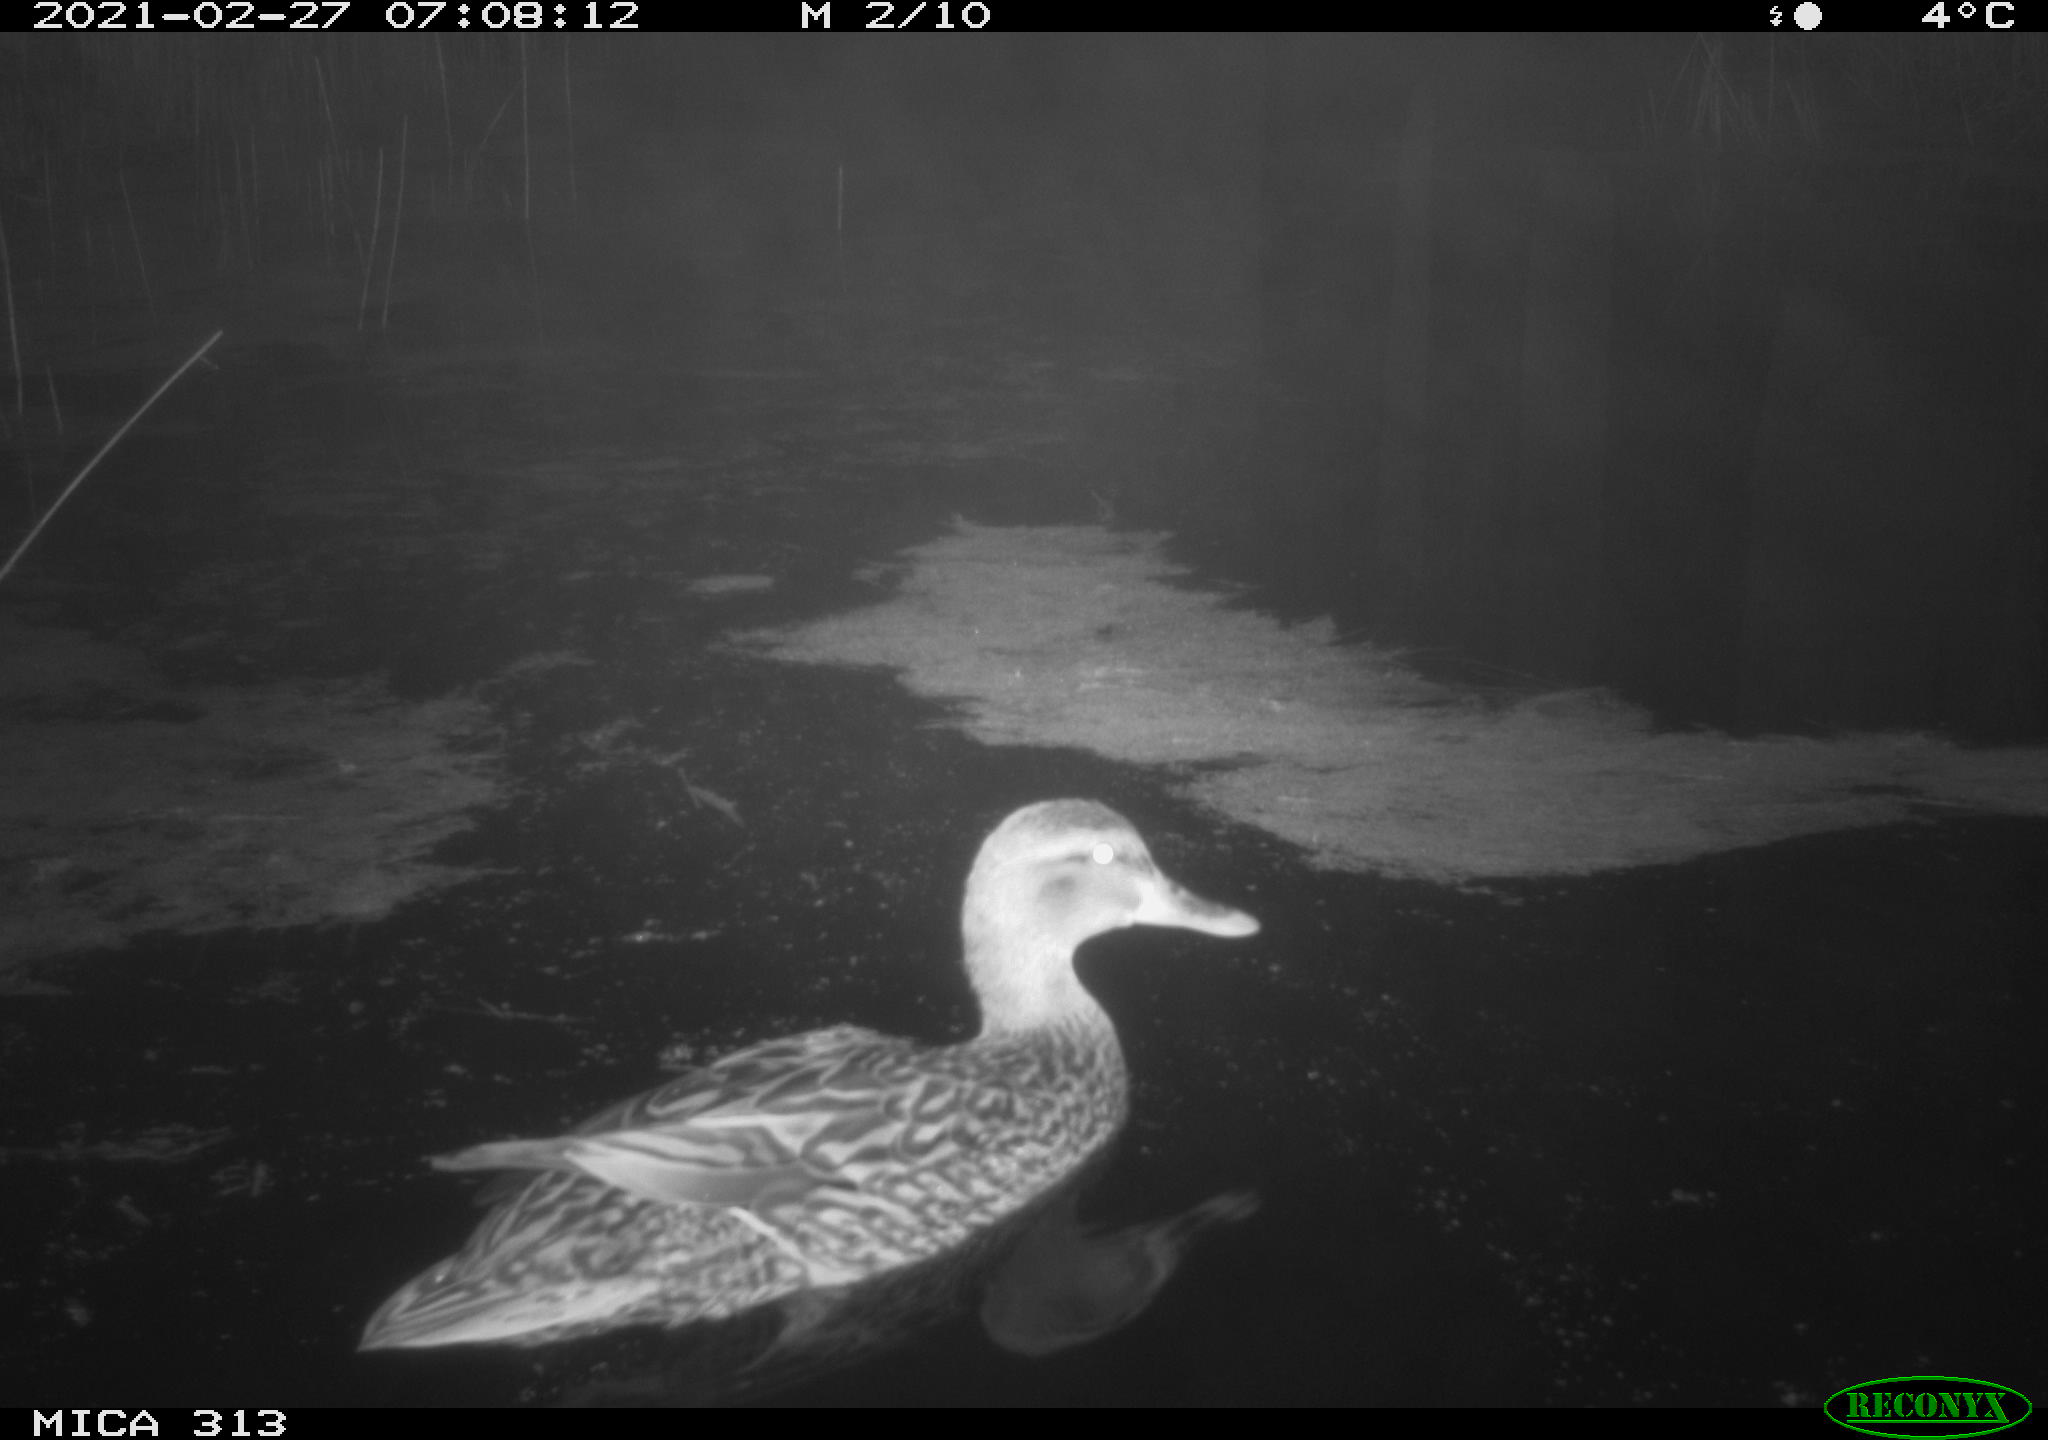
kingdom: Animalia
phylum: Chordata
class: Aves
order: Anseriformes
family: Anatidae
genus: Anas
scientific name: Anas
